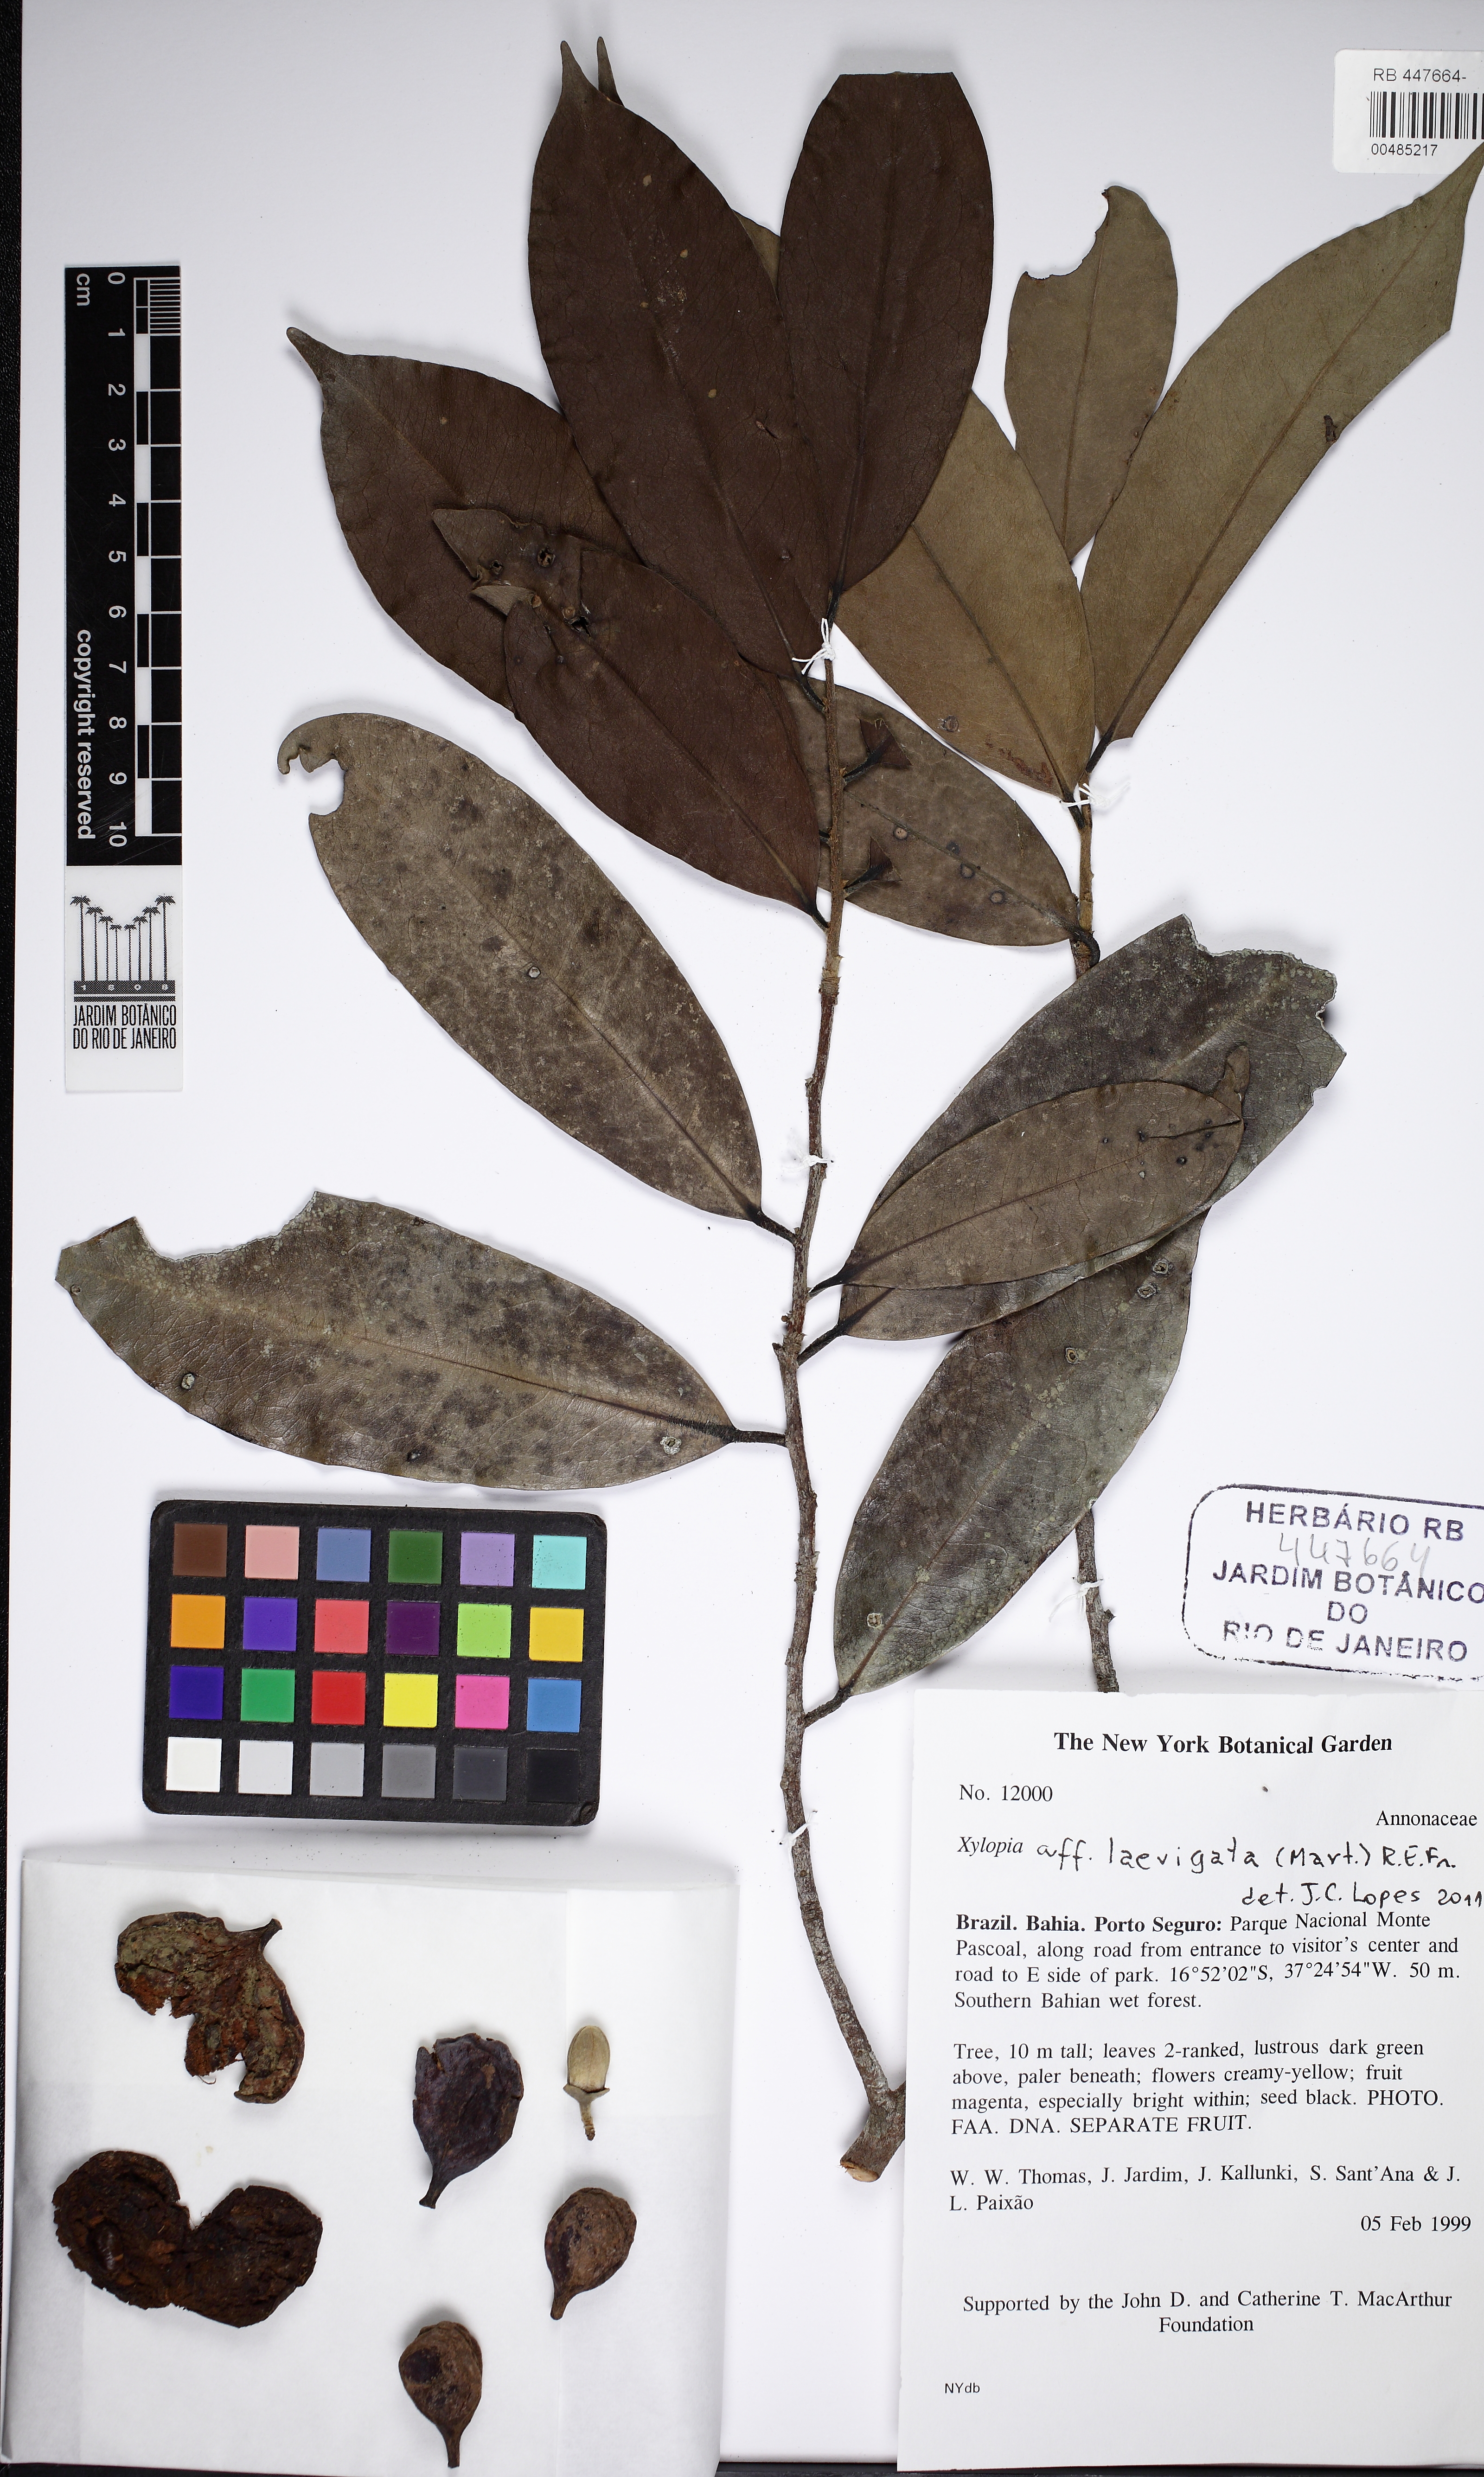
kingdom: Plantae
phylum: Tracheophyta
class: Magnoliopsida
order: Magnoliales
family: Annonaceae
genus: Xylopia
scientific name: Xylopia laevigata
